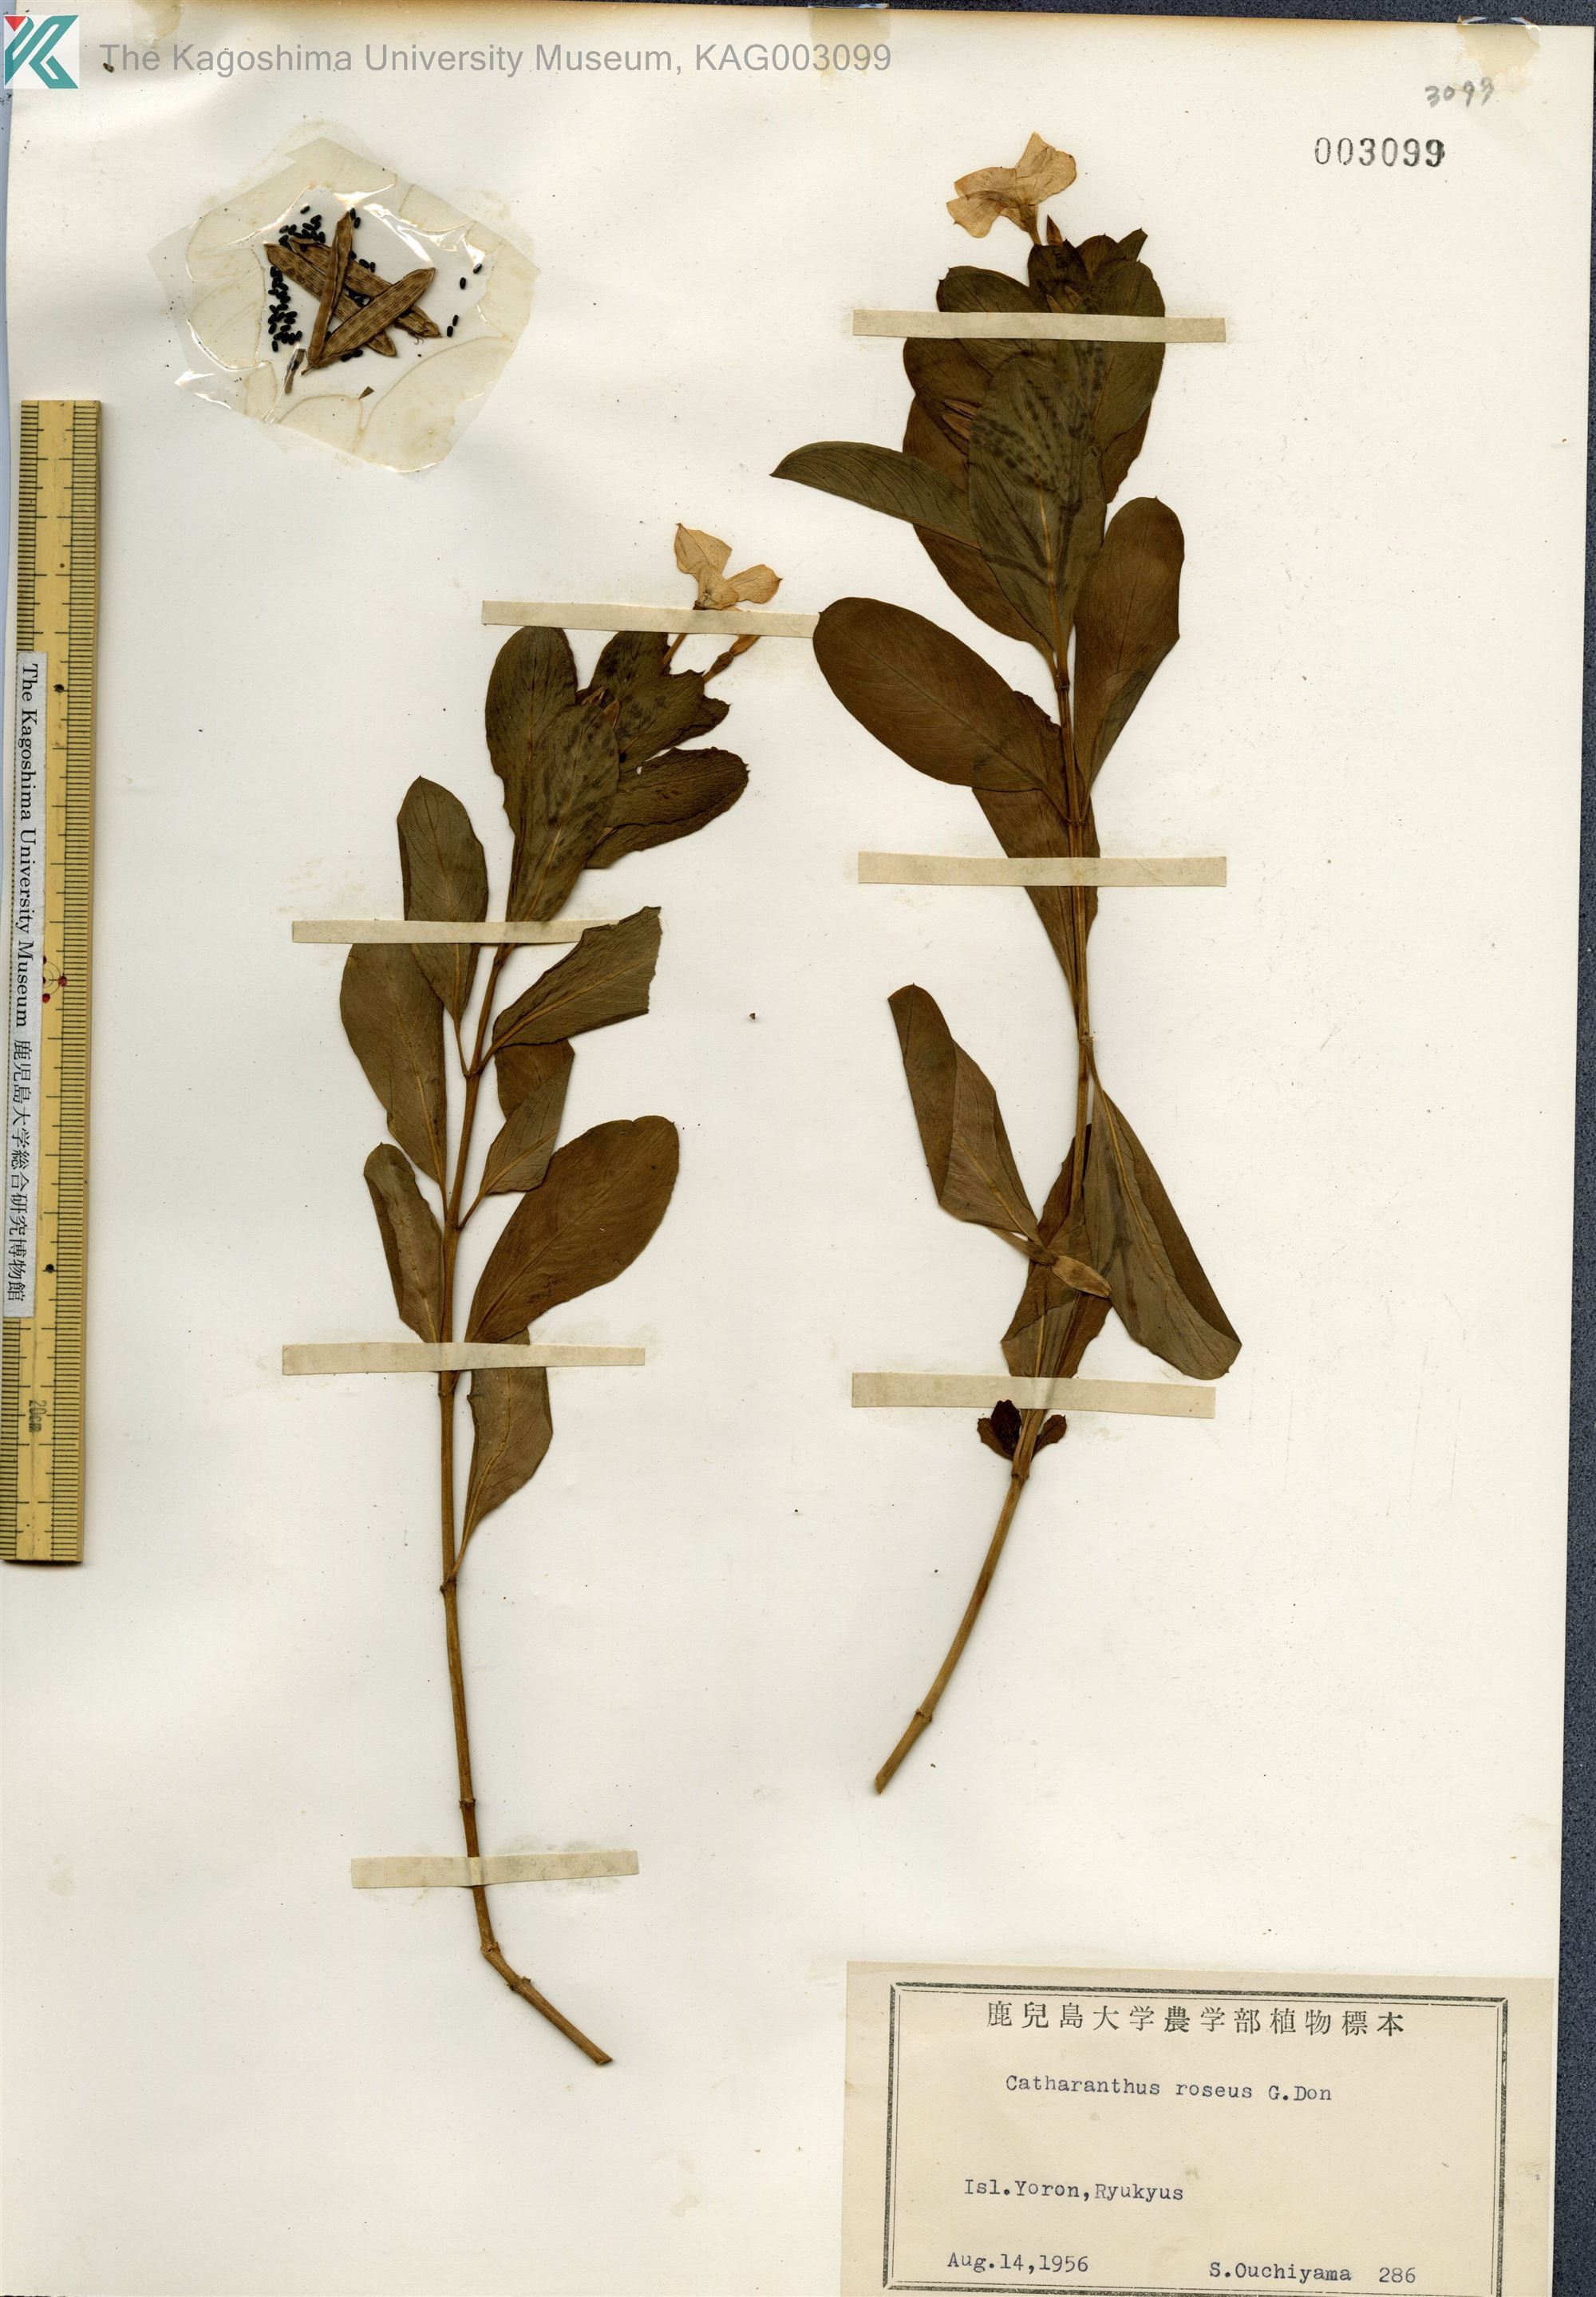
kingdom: Plantae
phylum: Tracheophyta
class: Magnoliopsida
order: Gentianales
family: Apocynaceae
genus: Catharanthus
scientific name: Catharanthus roseus
